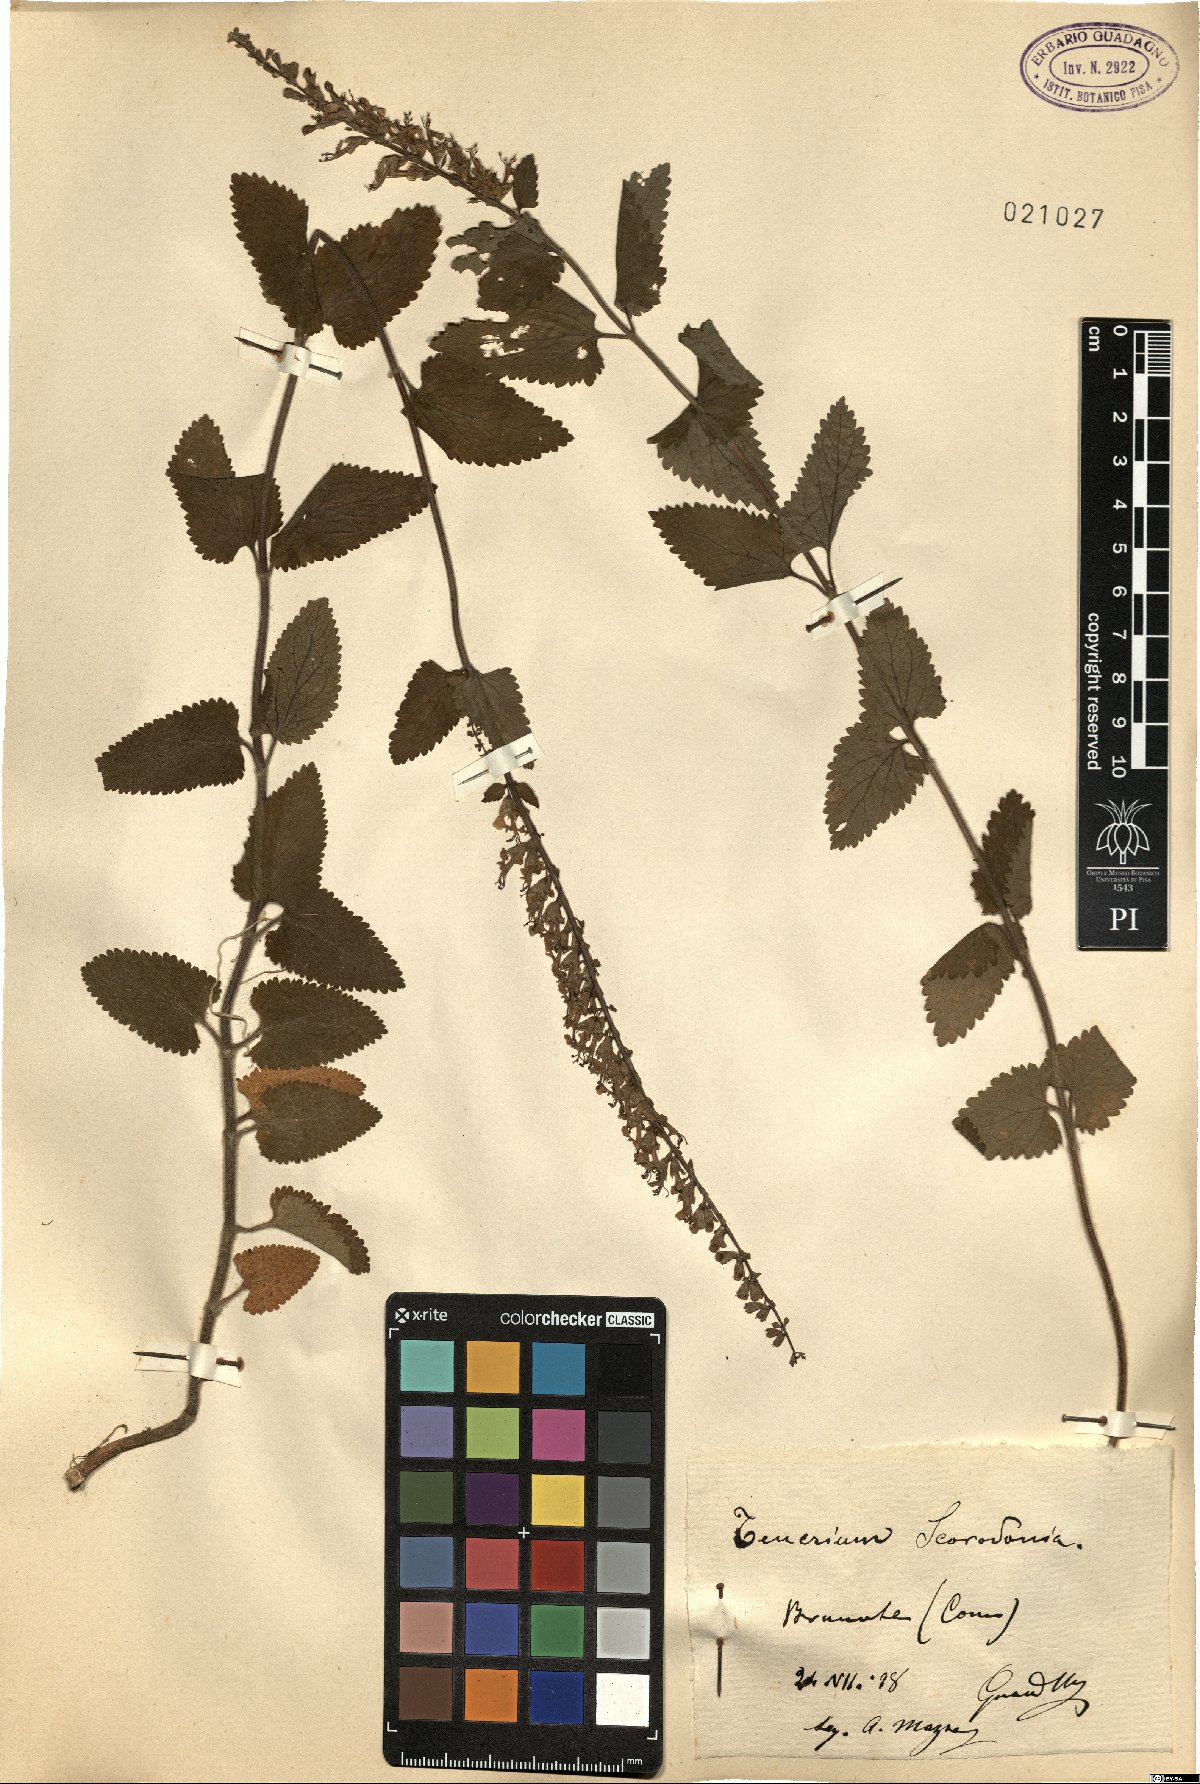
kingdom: Plantae
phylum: Tracheophyta
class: Magnoliopsida
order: Lamiales
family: Lamiaceae
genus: Teucrium
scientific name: Teucrium scorodonia
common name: Woodland germander
